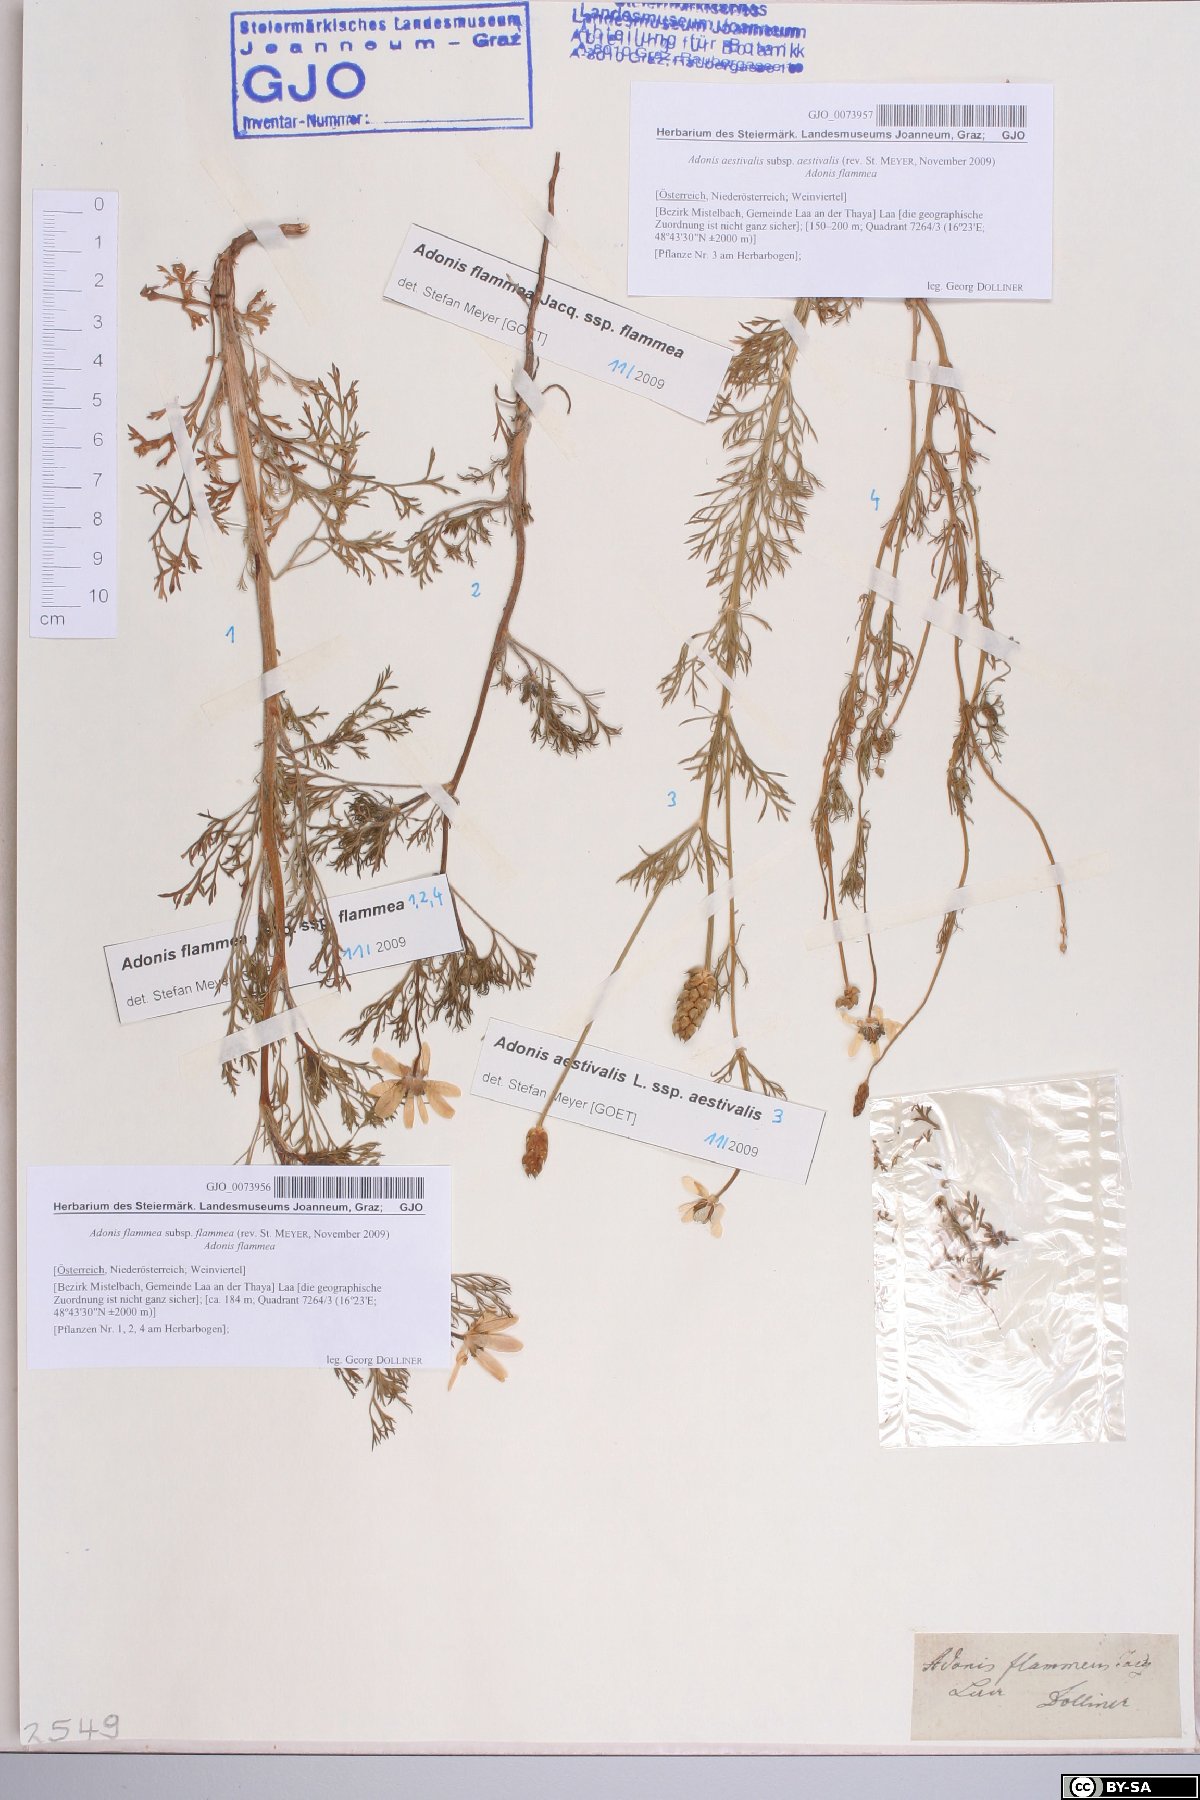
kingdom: Plantae
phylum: Tracheophyta
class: Magnoliopsida
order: Ranunculales
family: Ranunculaceae
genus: Adonis
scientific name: Adonis flammea
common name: Large pheasant's-eye
